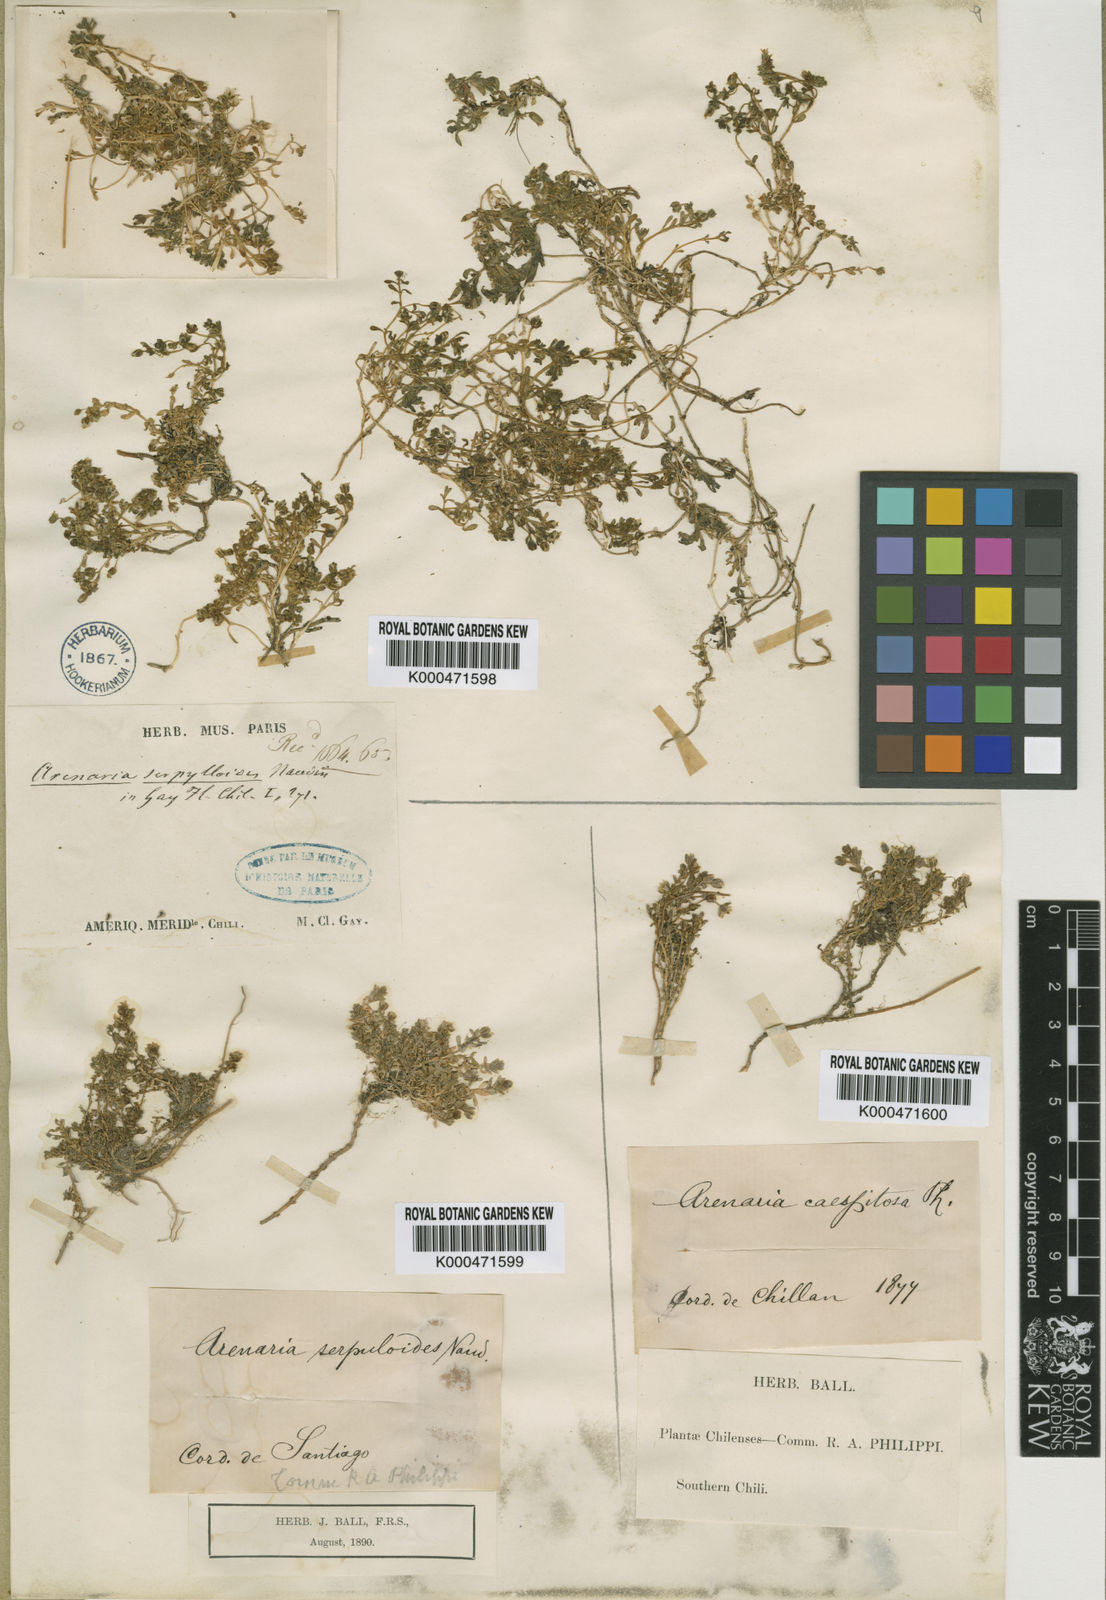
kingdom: Plantae
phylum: Tracheophyta
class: Magnoliopsida
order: Caryophyllales
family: Caryophyllaceae
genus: Arenaria
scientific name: Arenaria
